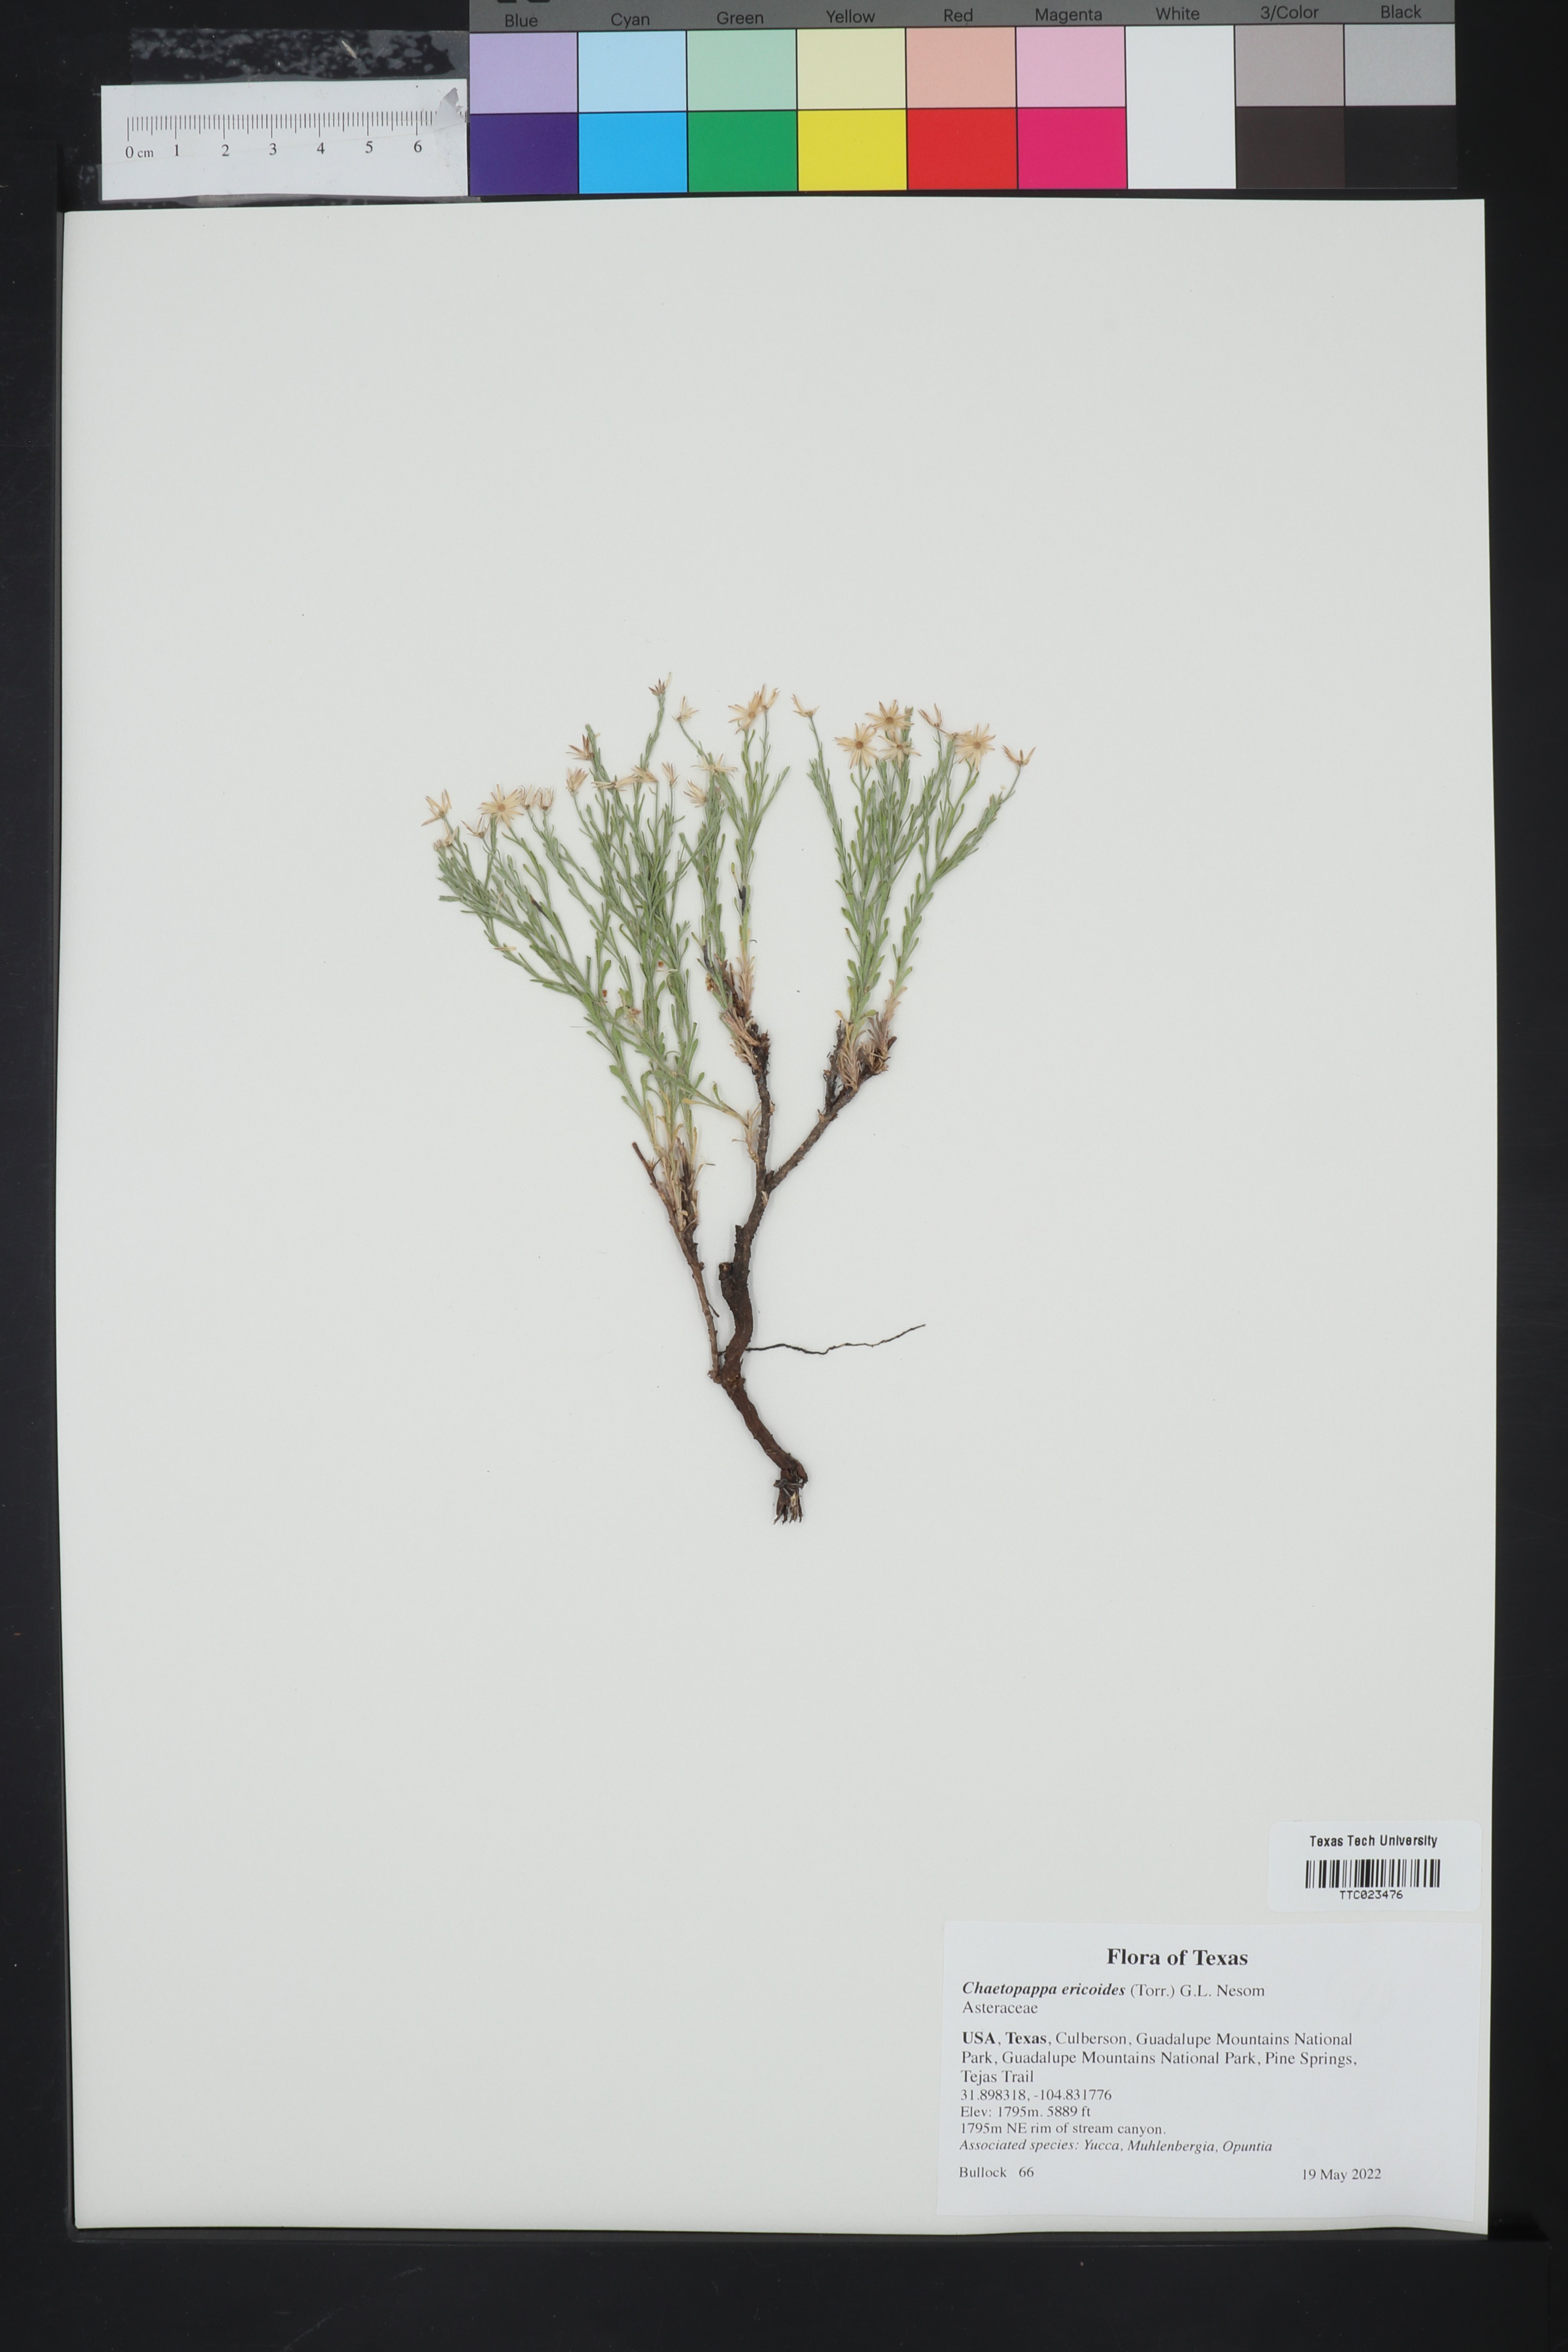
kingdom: Plantae
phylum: Tracheophyta
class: Magnoliopsida
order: Asterales
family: Asteraceae
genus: Chaetopappa
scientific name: Chaetopappa ericoides
